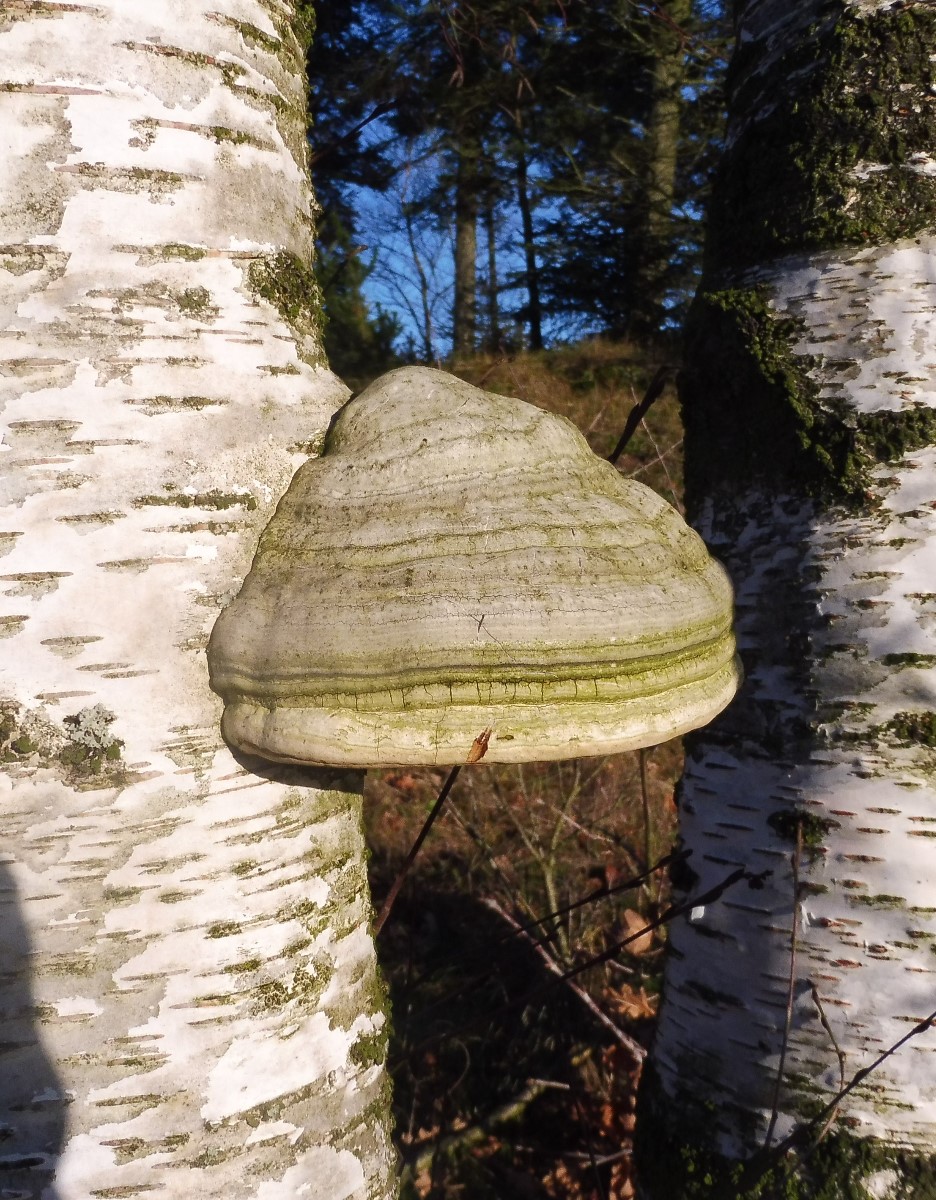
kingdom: Fungi
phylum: Basidiomycota
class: Agaricomycetes
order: Polyporales
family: Polyporaceae
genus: Fomes
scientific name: Fomes fomentarius
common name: tøndersvamp
